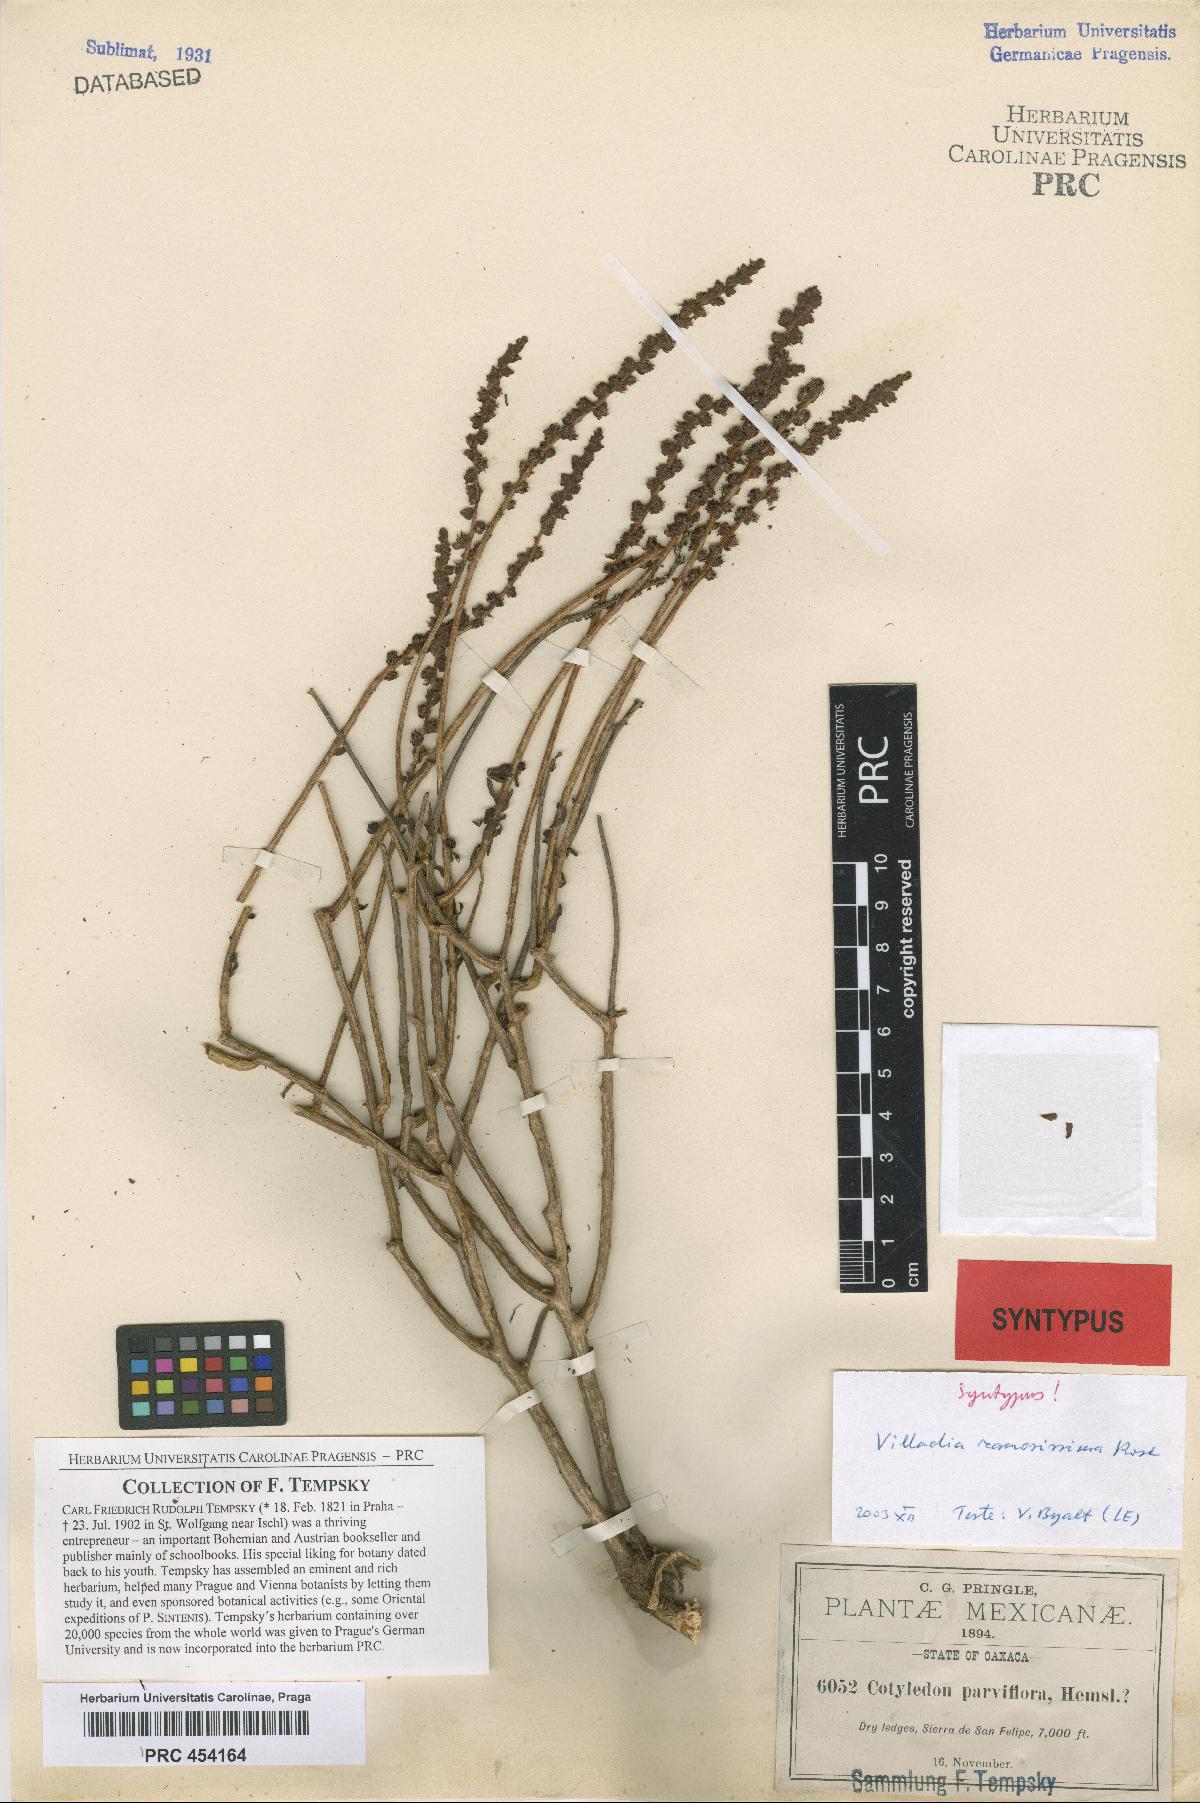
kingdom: Plantae
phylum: Tracheophyta
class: Magnoliopsida
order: Saxifragales
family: Crassulaceae
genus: Villadia
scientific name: Villadia albiflora
